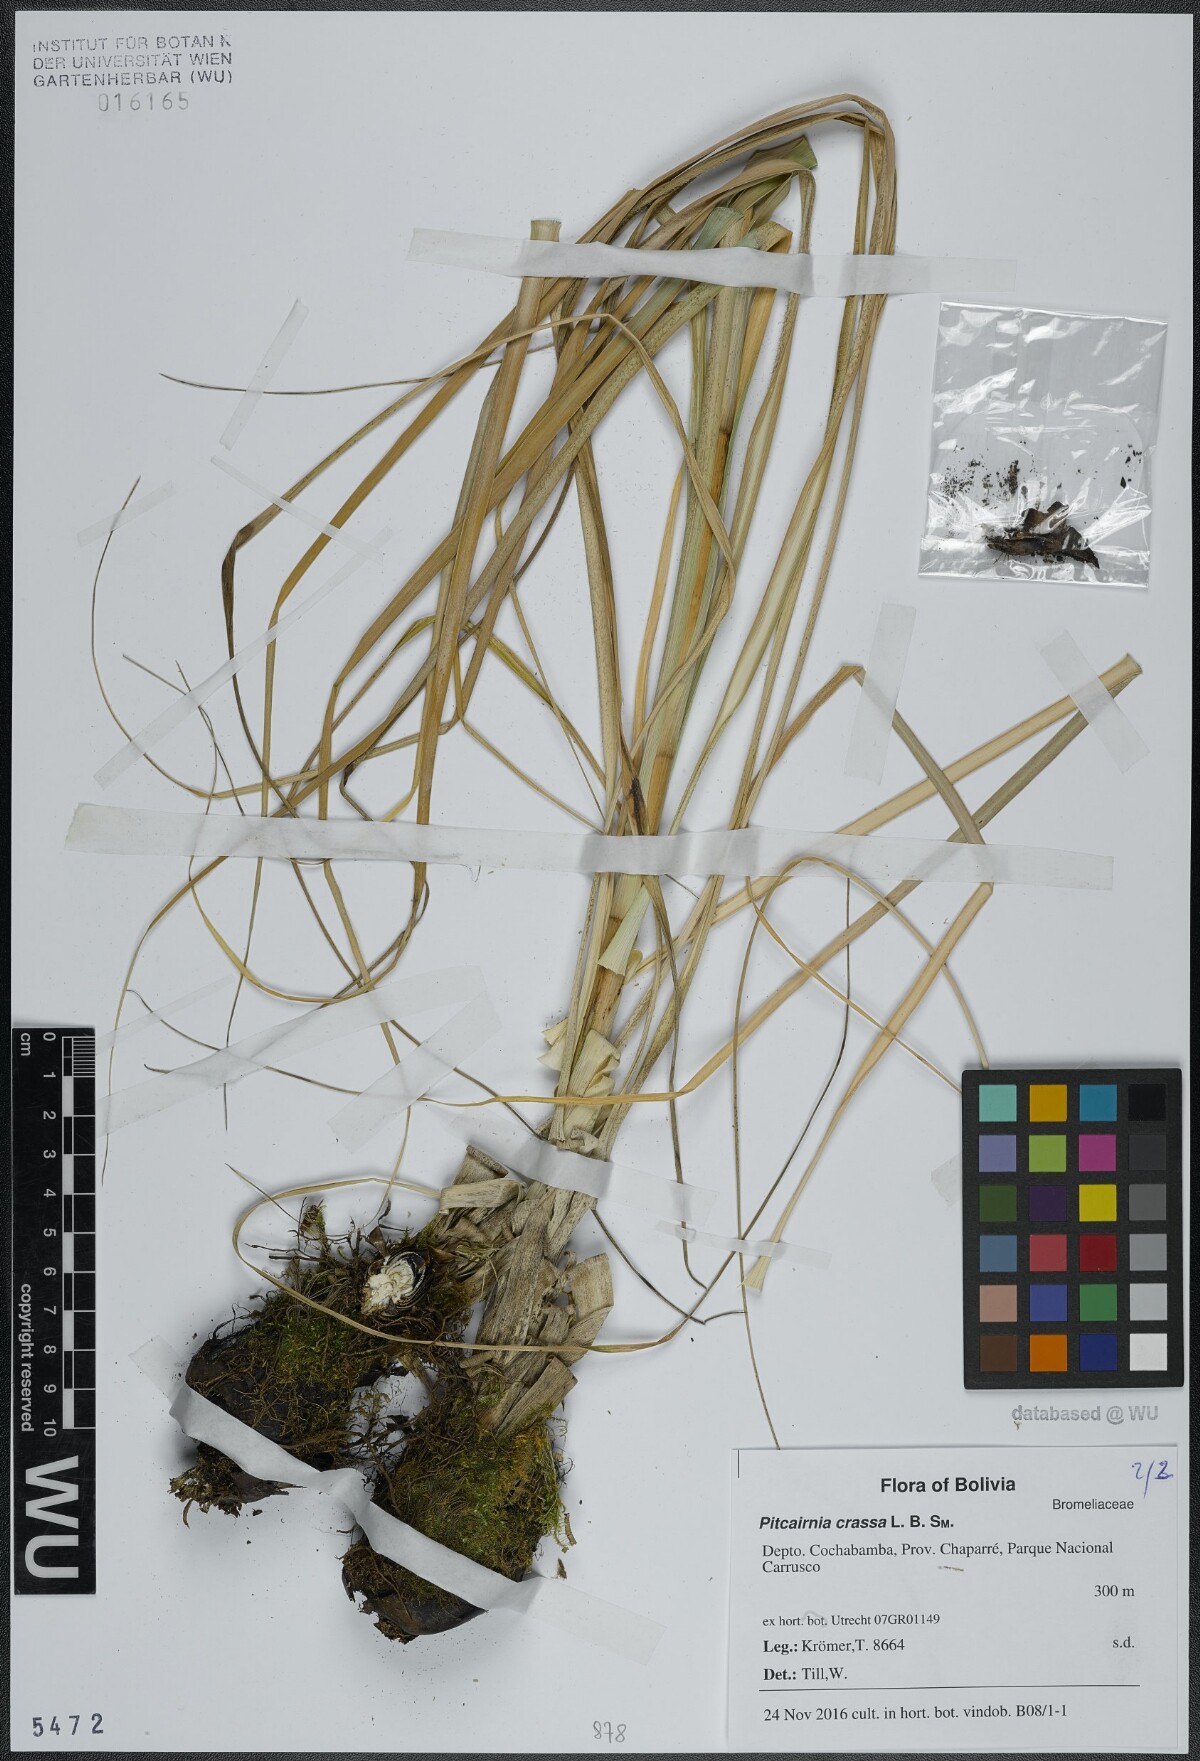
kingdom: Plantae
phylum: Tracheophyta
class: Liliopsida
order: Poales
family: Bromeliaceae
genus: Pitcairnia
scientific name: Pitcairnia crassa
